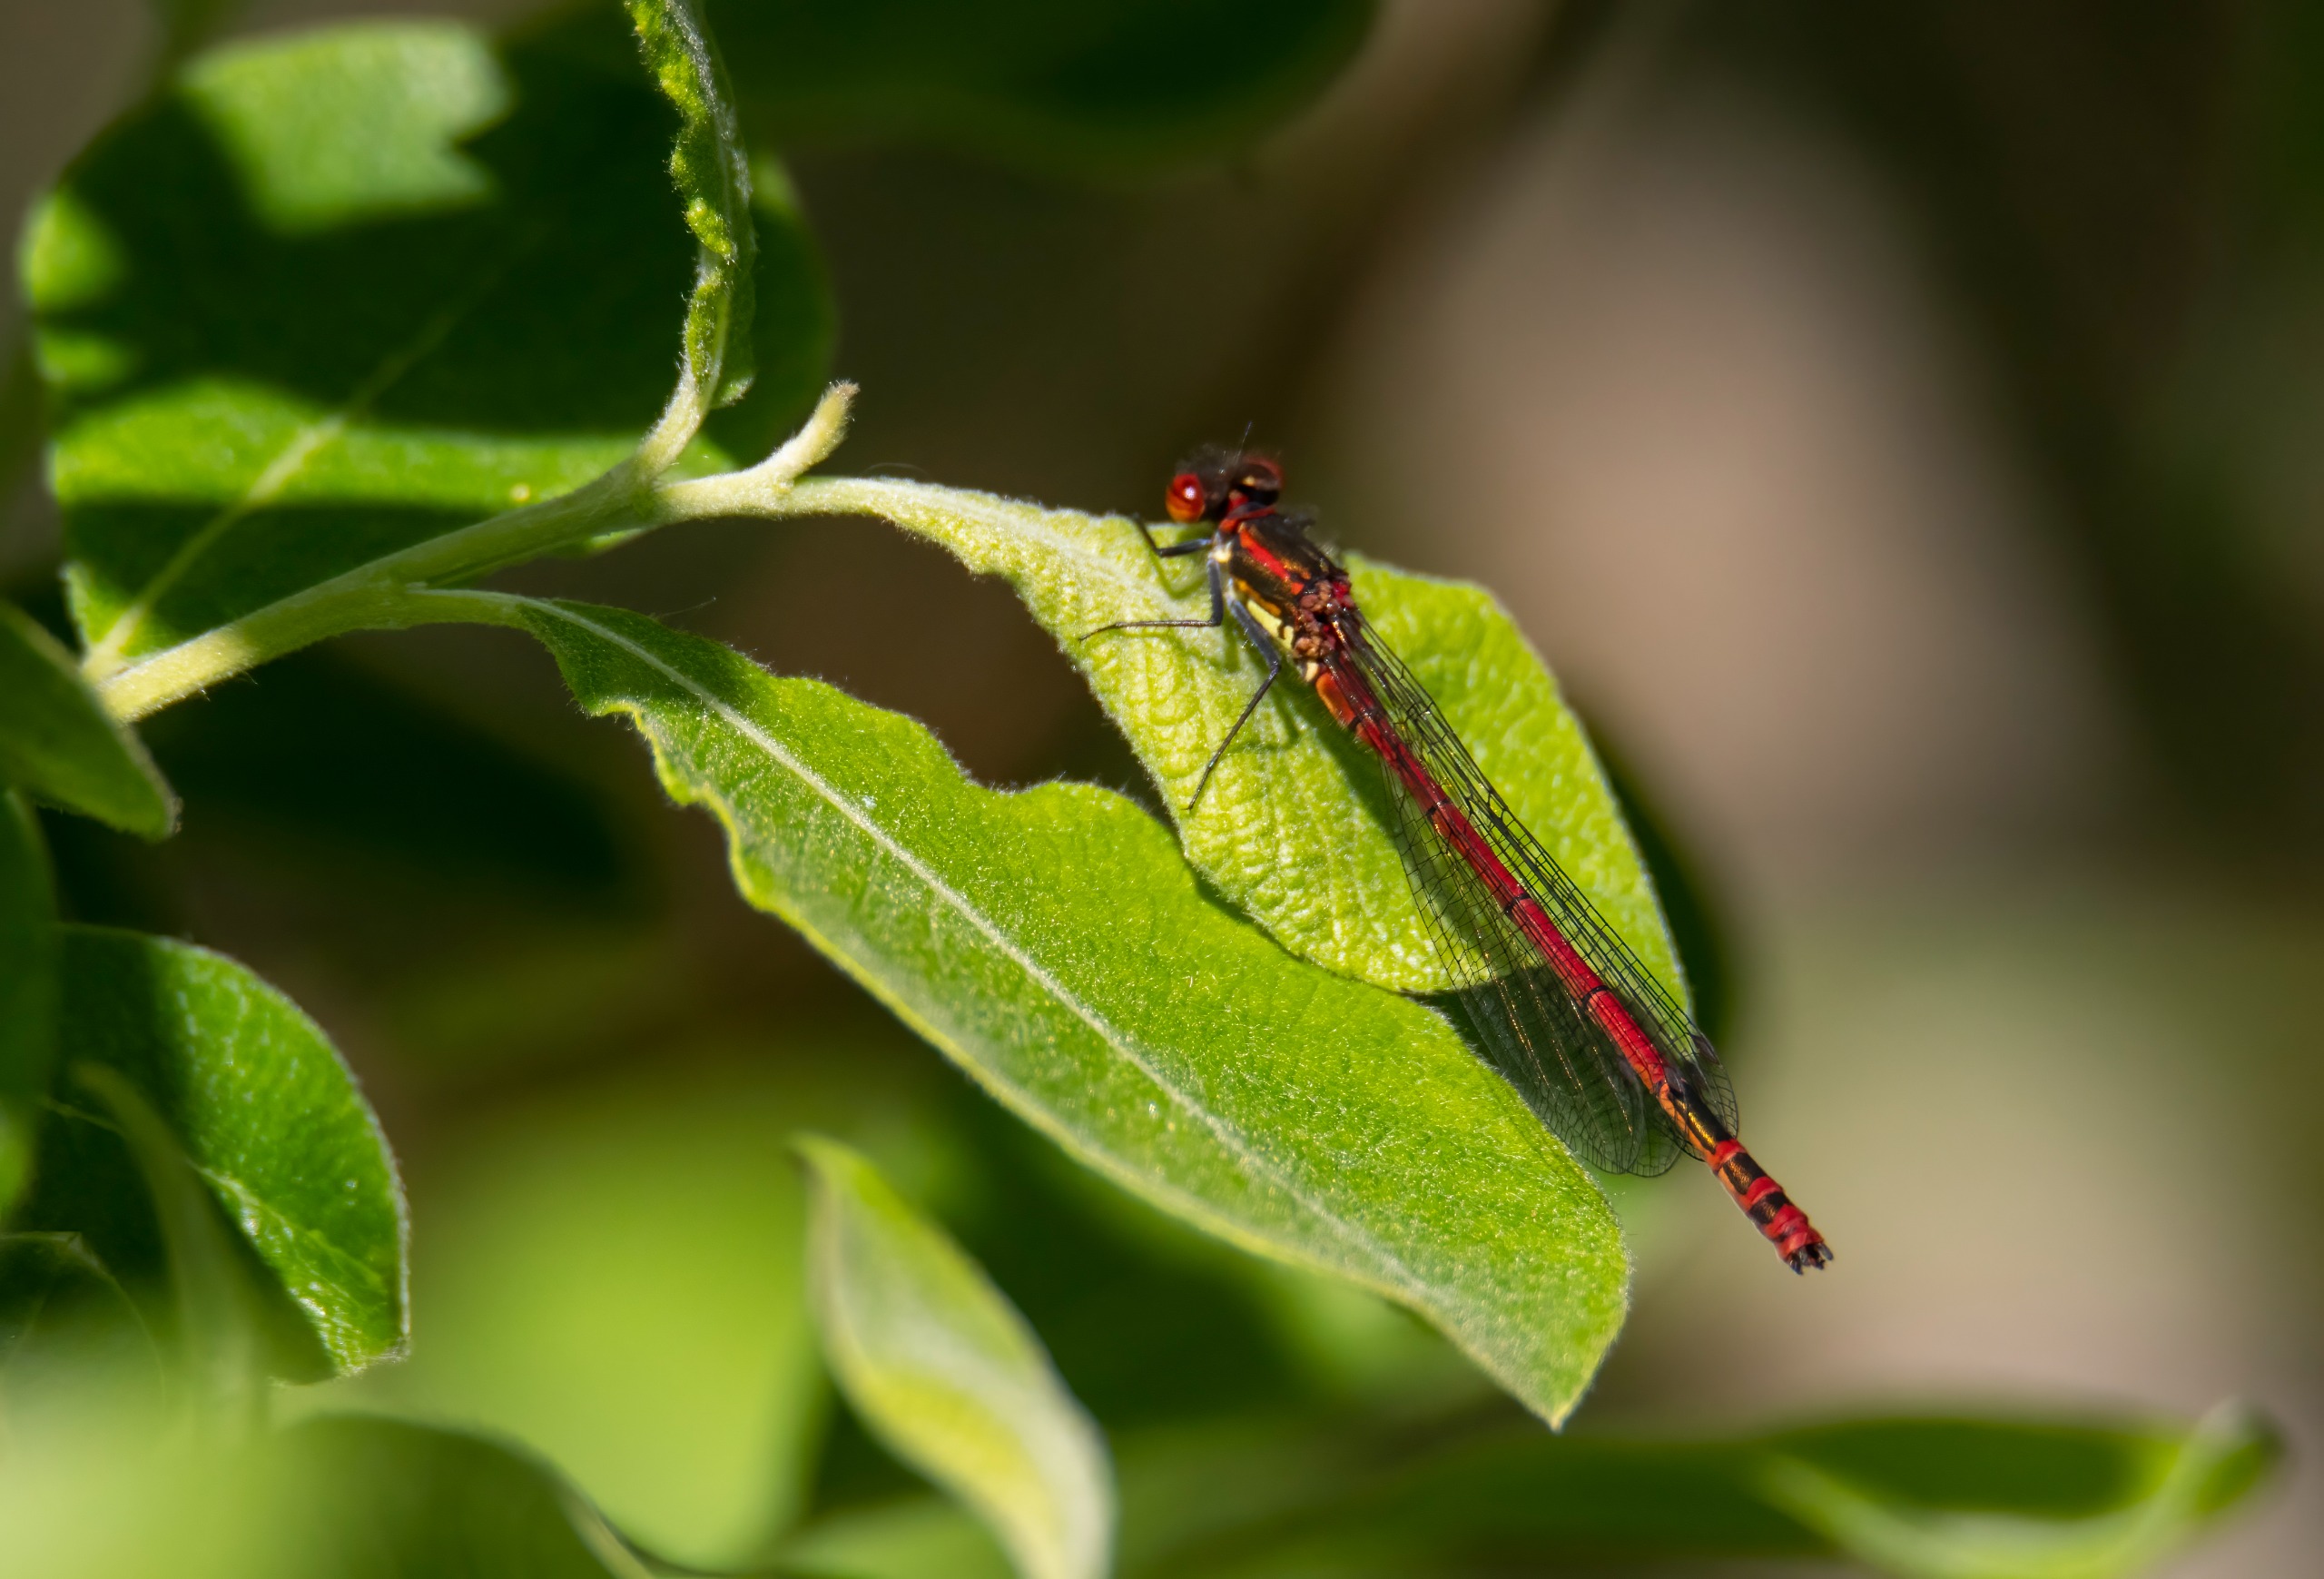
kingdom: Animalia
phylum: Arthropoda
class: Insecta
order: Odonata
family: Coenagrionidae
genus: Pyrrhosoma
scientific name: Pyrrhosoma nymphula
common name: Rød vandnymfe
